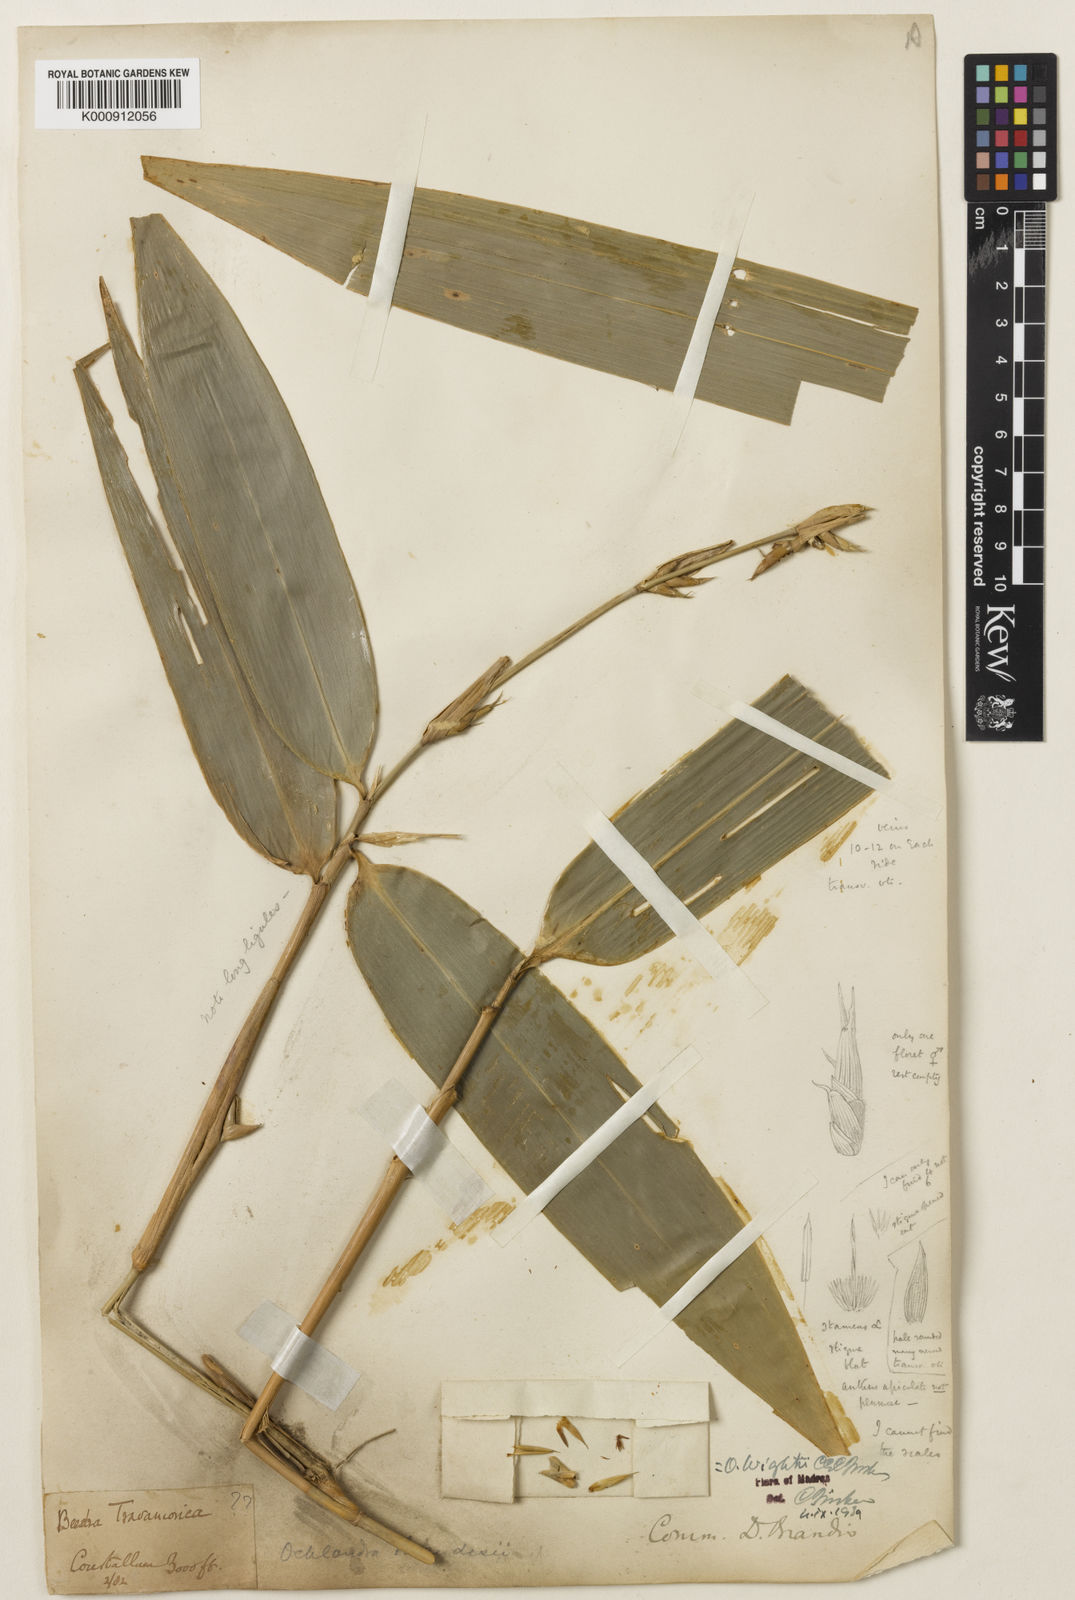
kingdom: Plantae
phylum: Tracheophyta
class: Liliopsida
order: Poales
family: Poaceae
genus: Ochlandra
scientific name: Ochlandra wightii
